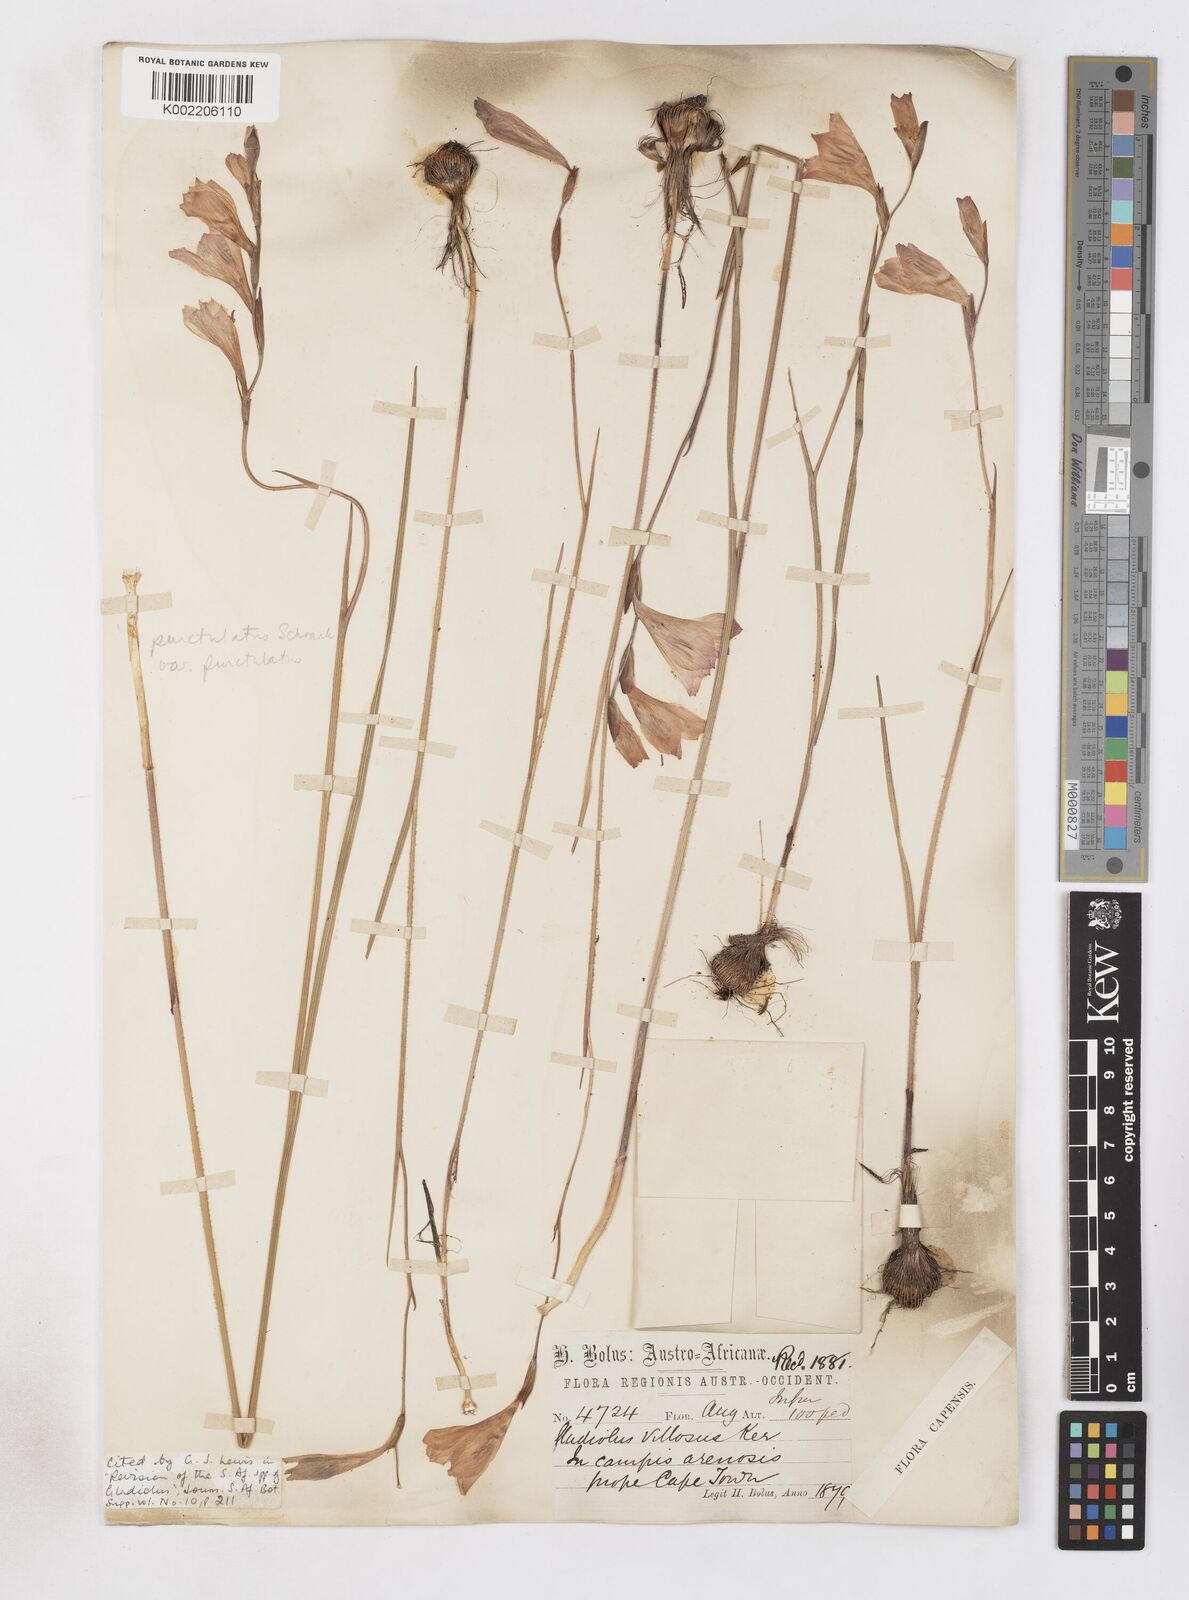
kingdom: Plantae
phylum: Tracheophyta
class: Liliopsida
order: Asparagales
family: Iridaceae
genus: Gladiolus
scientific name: Gladiolus hirsutus
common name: Small pink afrikaner
